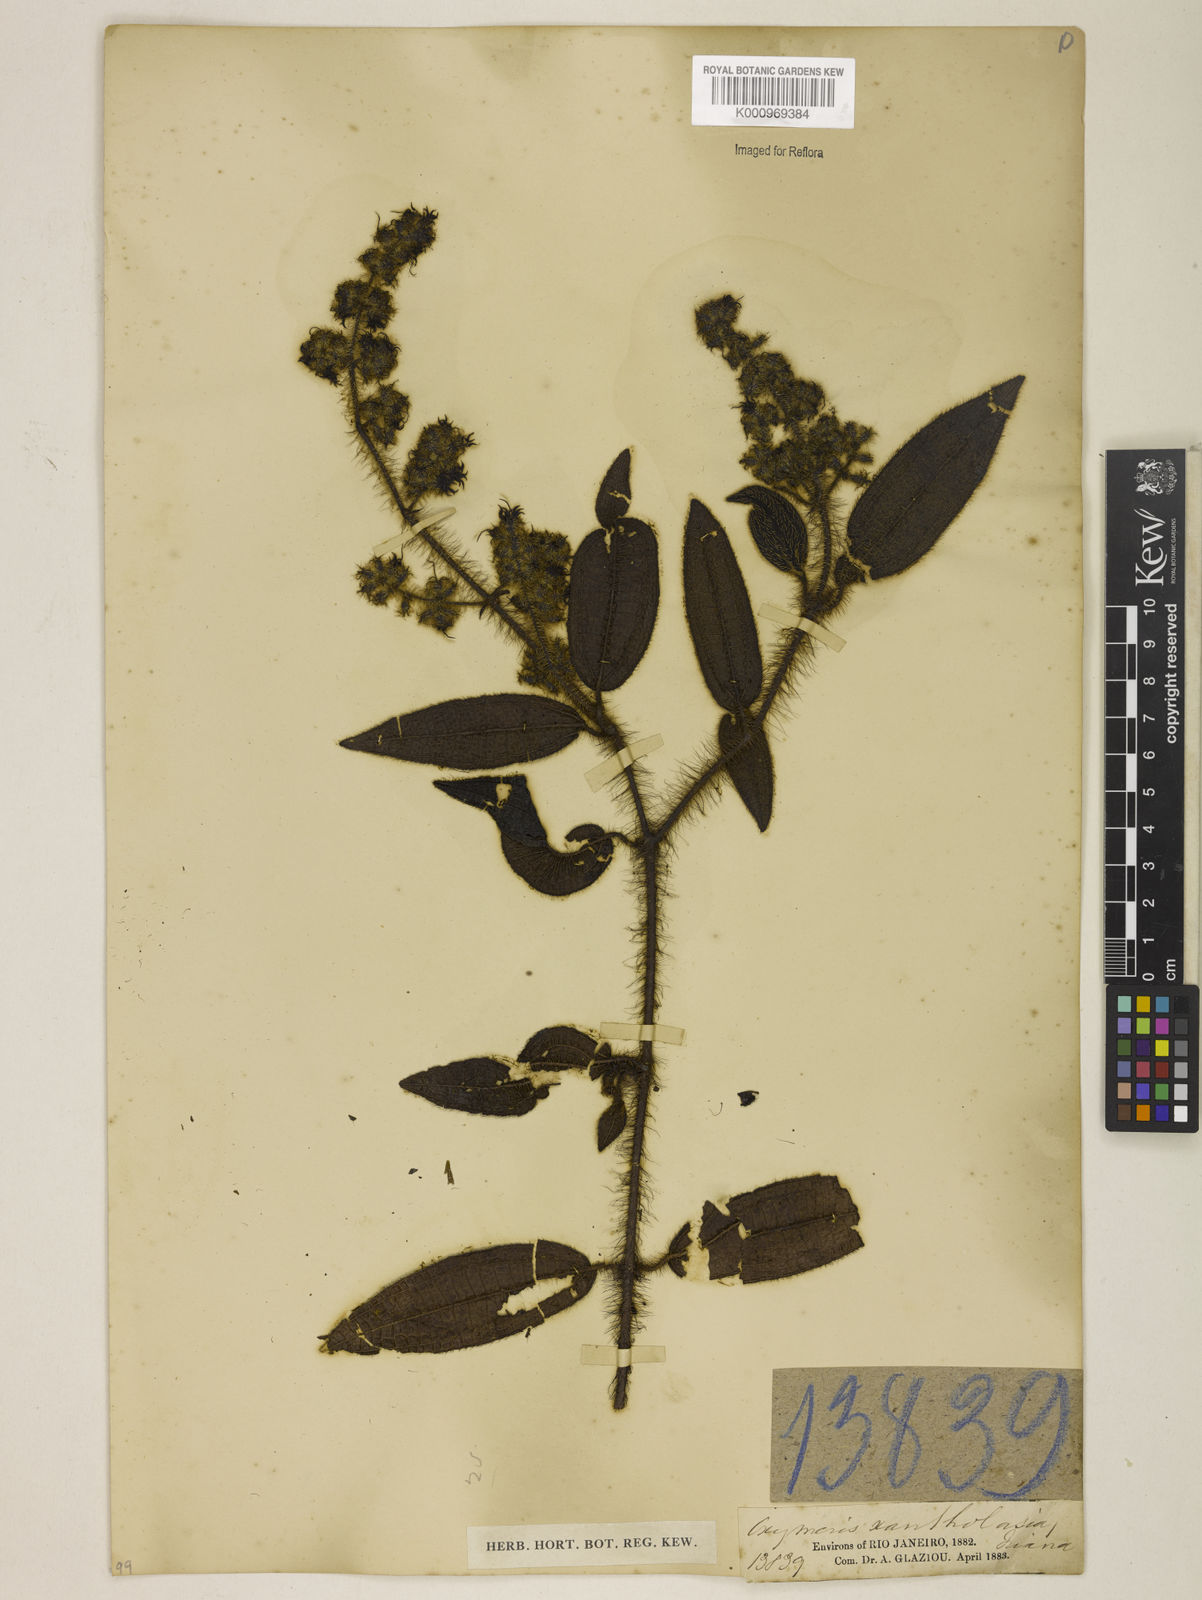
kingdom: Plantae
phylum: Tracheophyta
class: Magnoliopsida
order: Myrtales
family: Melastomataceae
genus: Miconia
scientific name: Miconia xantholasia
